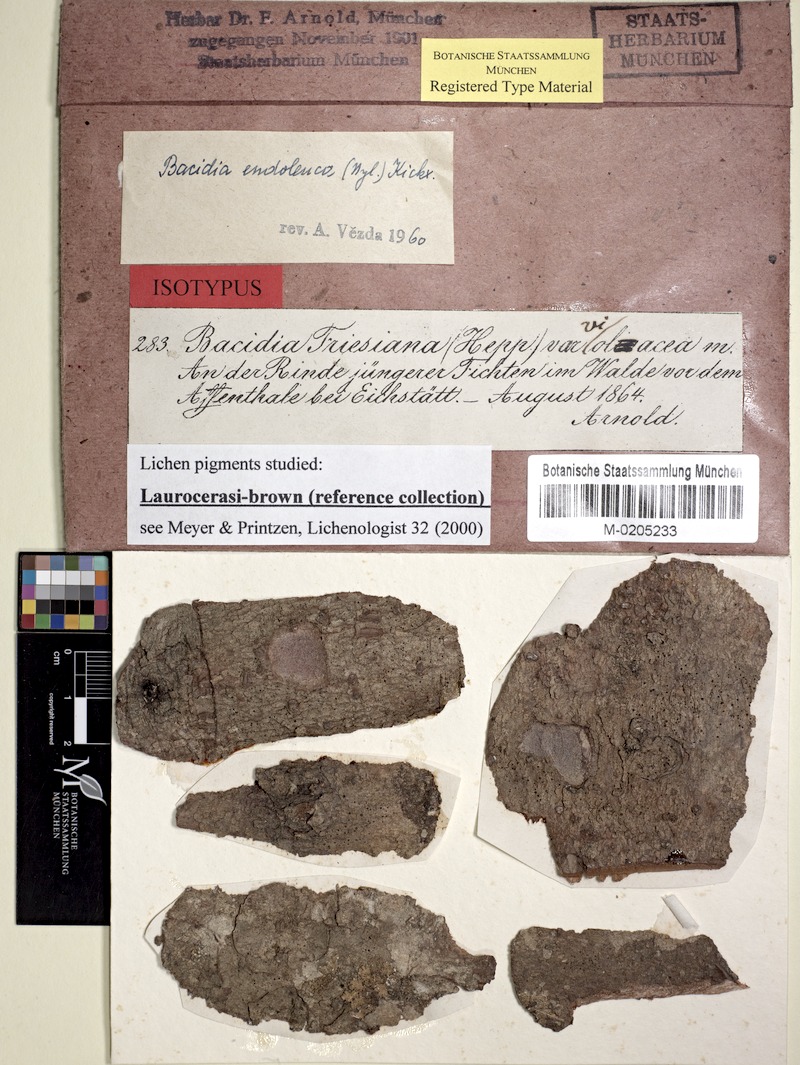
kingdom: Fungi
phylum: Ascomycota
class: Lecanoromycetes
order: Lecanorales
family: Ramalinaceae
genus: Bacidia
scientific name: Bacidia laurocerasi
